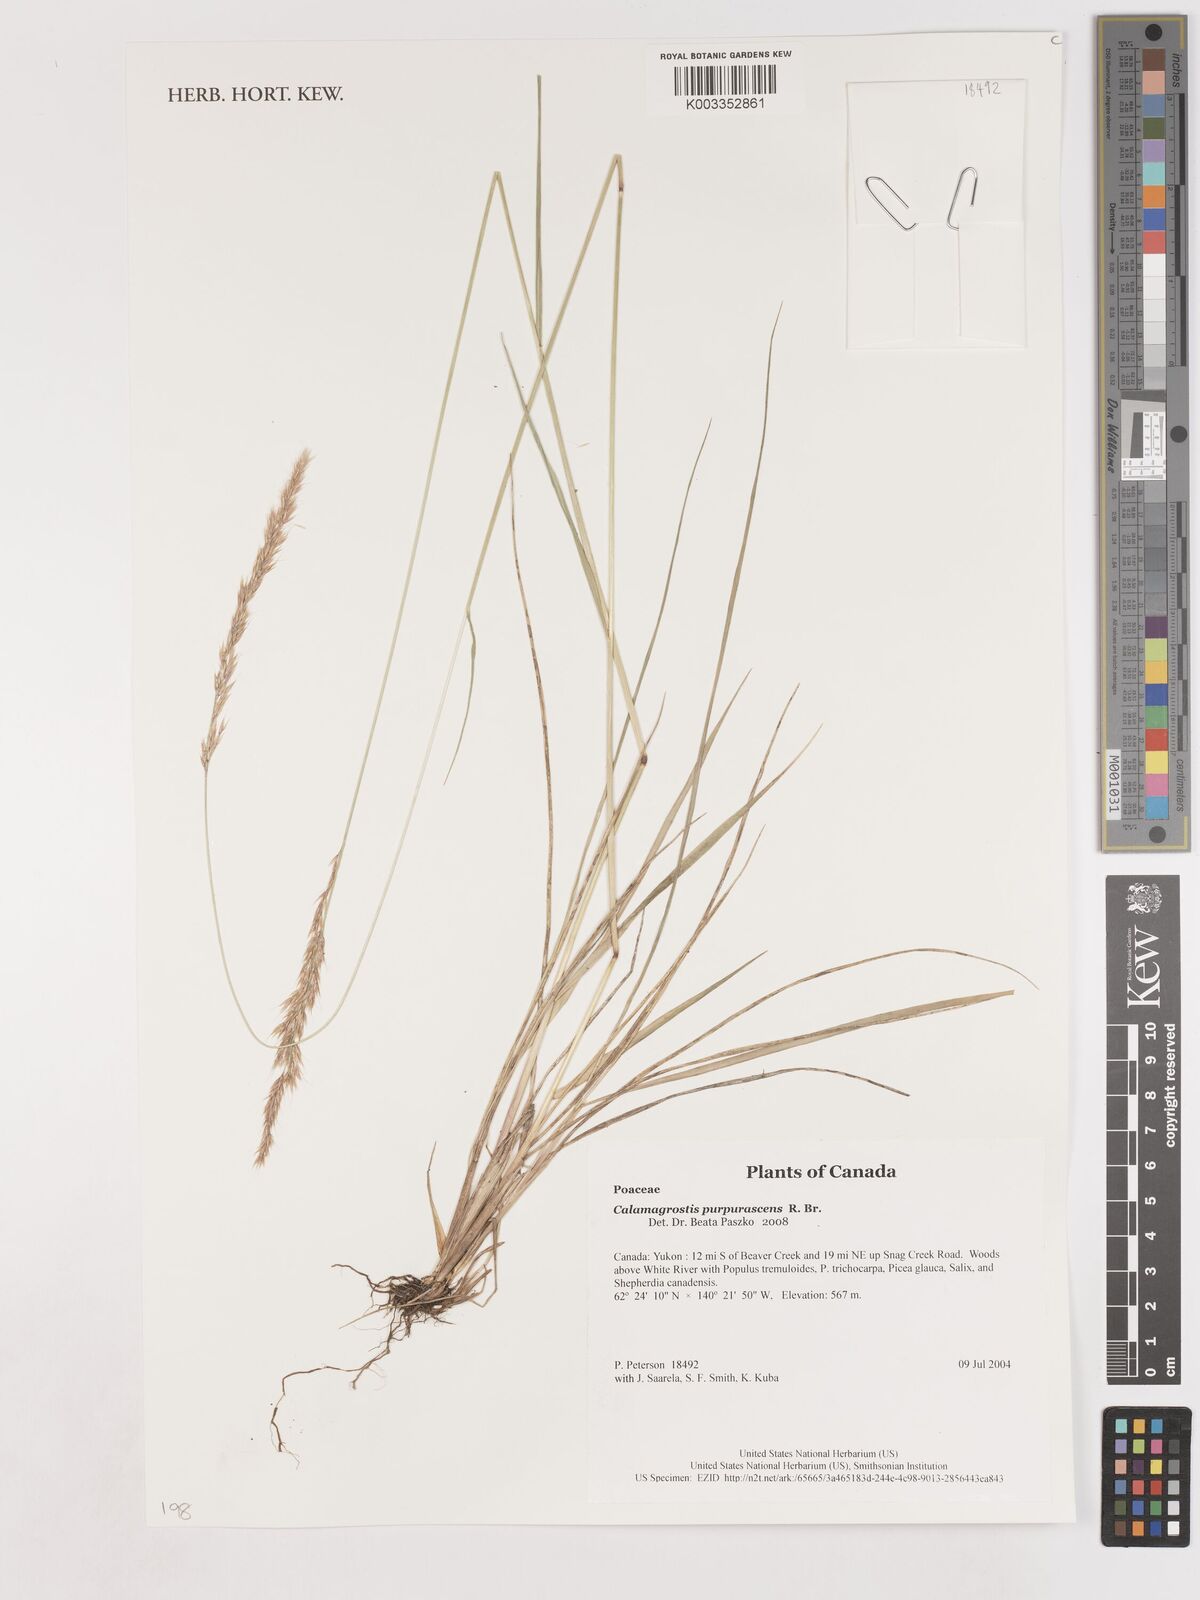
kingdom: Plantae
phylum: Tracheophyta
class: Liliopsida
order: Poales
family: Poaceae
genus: Calamagrostis
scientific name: Calamagrostis purpurascens
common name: Purple reedgrass
